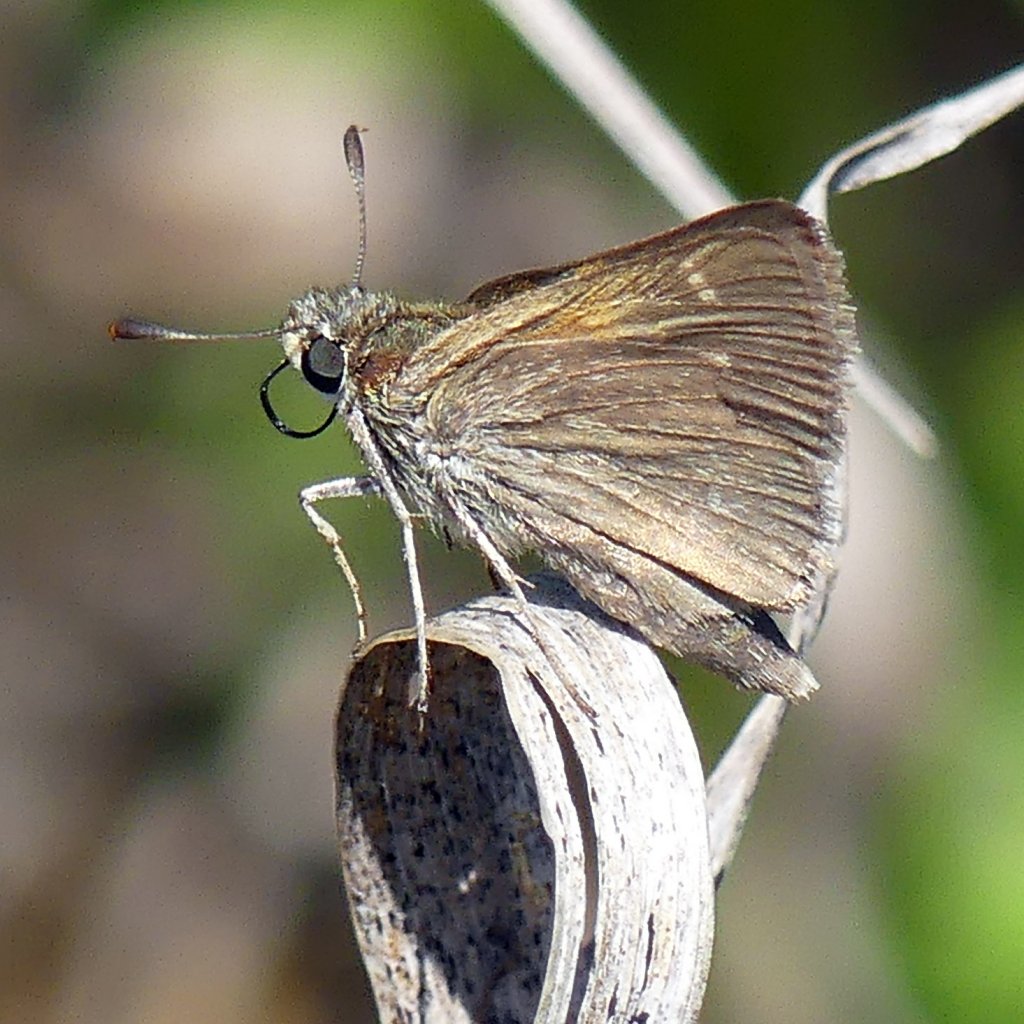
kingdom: Animalia
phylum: Arthropoda
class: Insecta
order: Lepidoptera
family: Hesperiidae
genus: Polites
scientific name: Polites themistocles
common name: Tawny-edged Skipper
